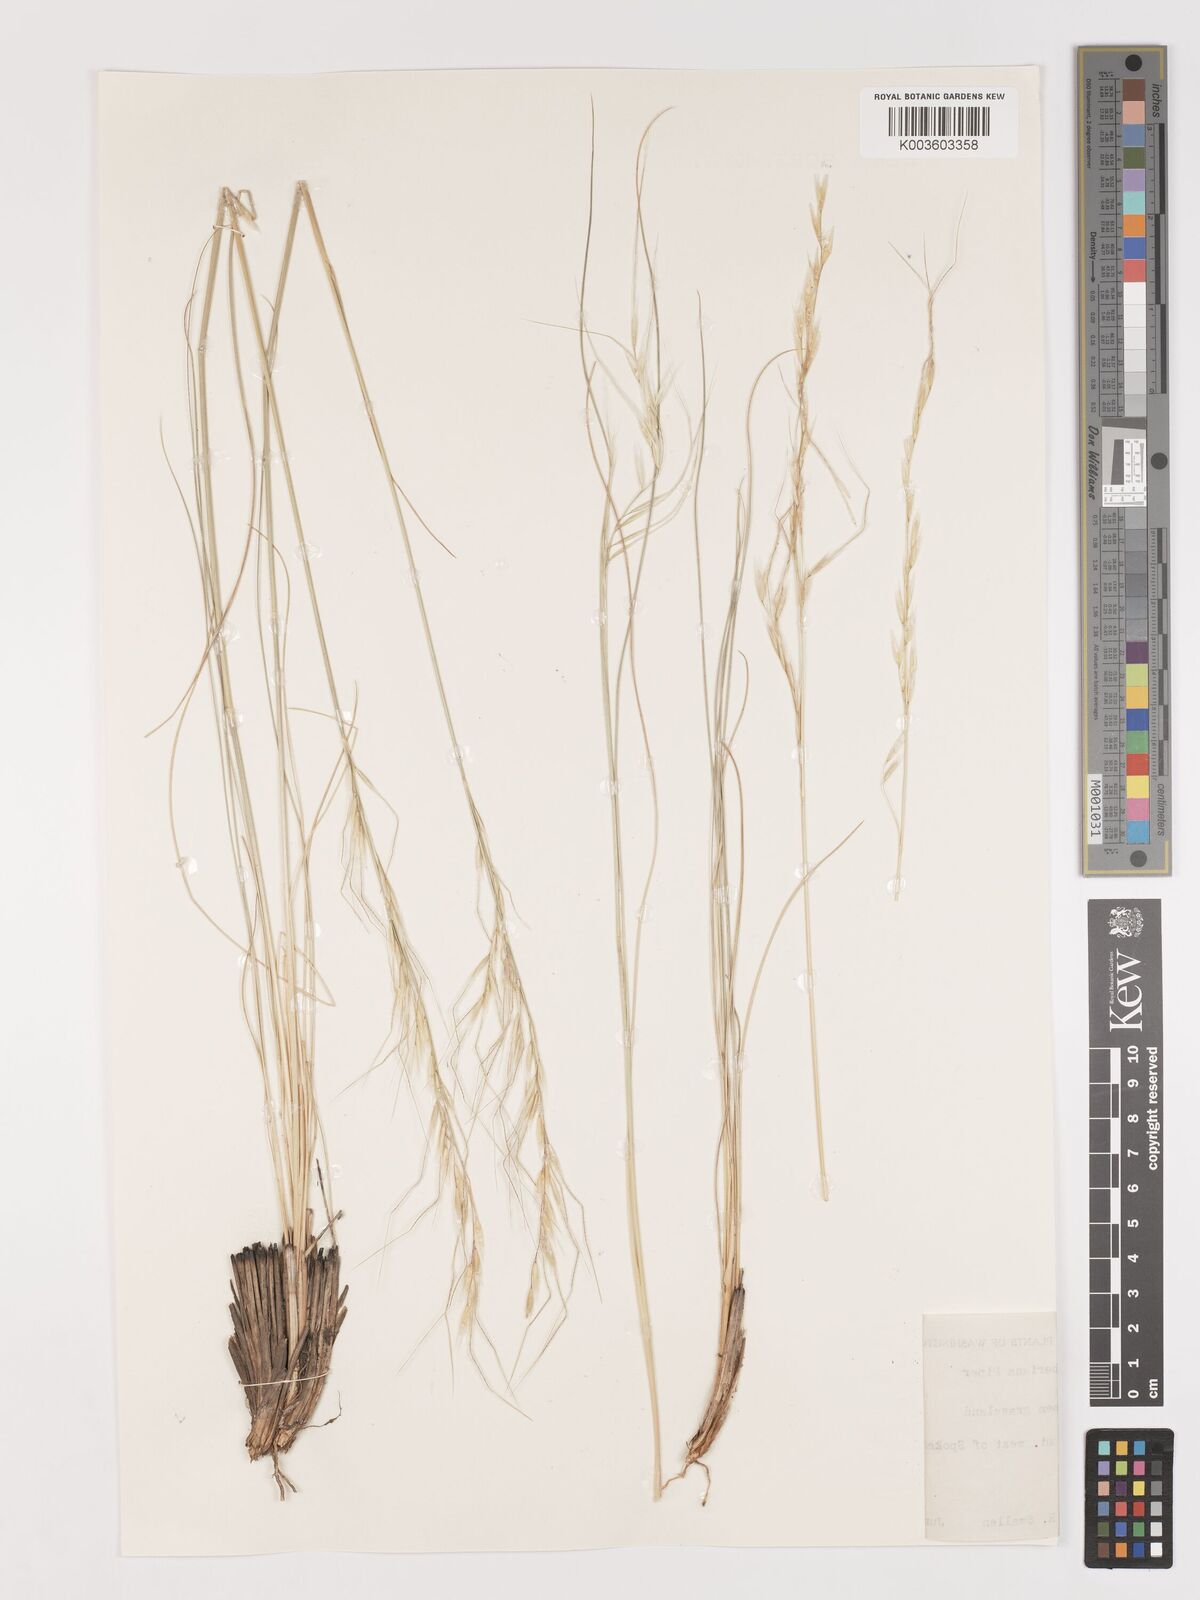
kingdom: Plantae
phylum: Tracheophyta
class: Liliopsida
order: Poales
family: Poaceae
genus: Eriocoma
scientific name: Eriocoma thurberiana
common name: Thurber's needlegrass
